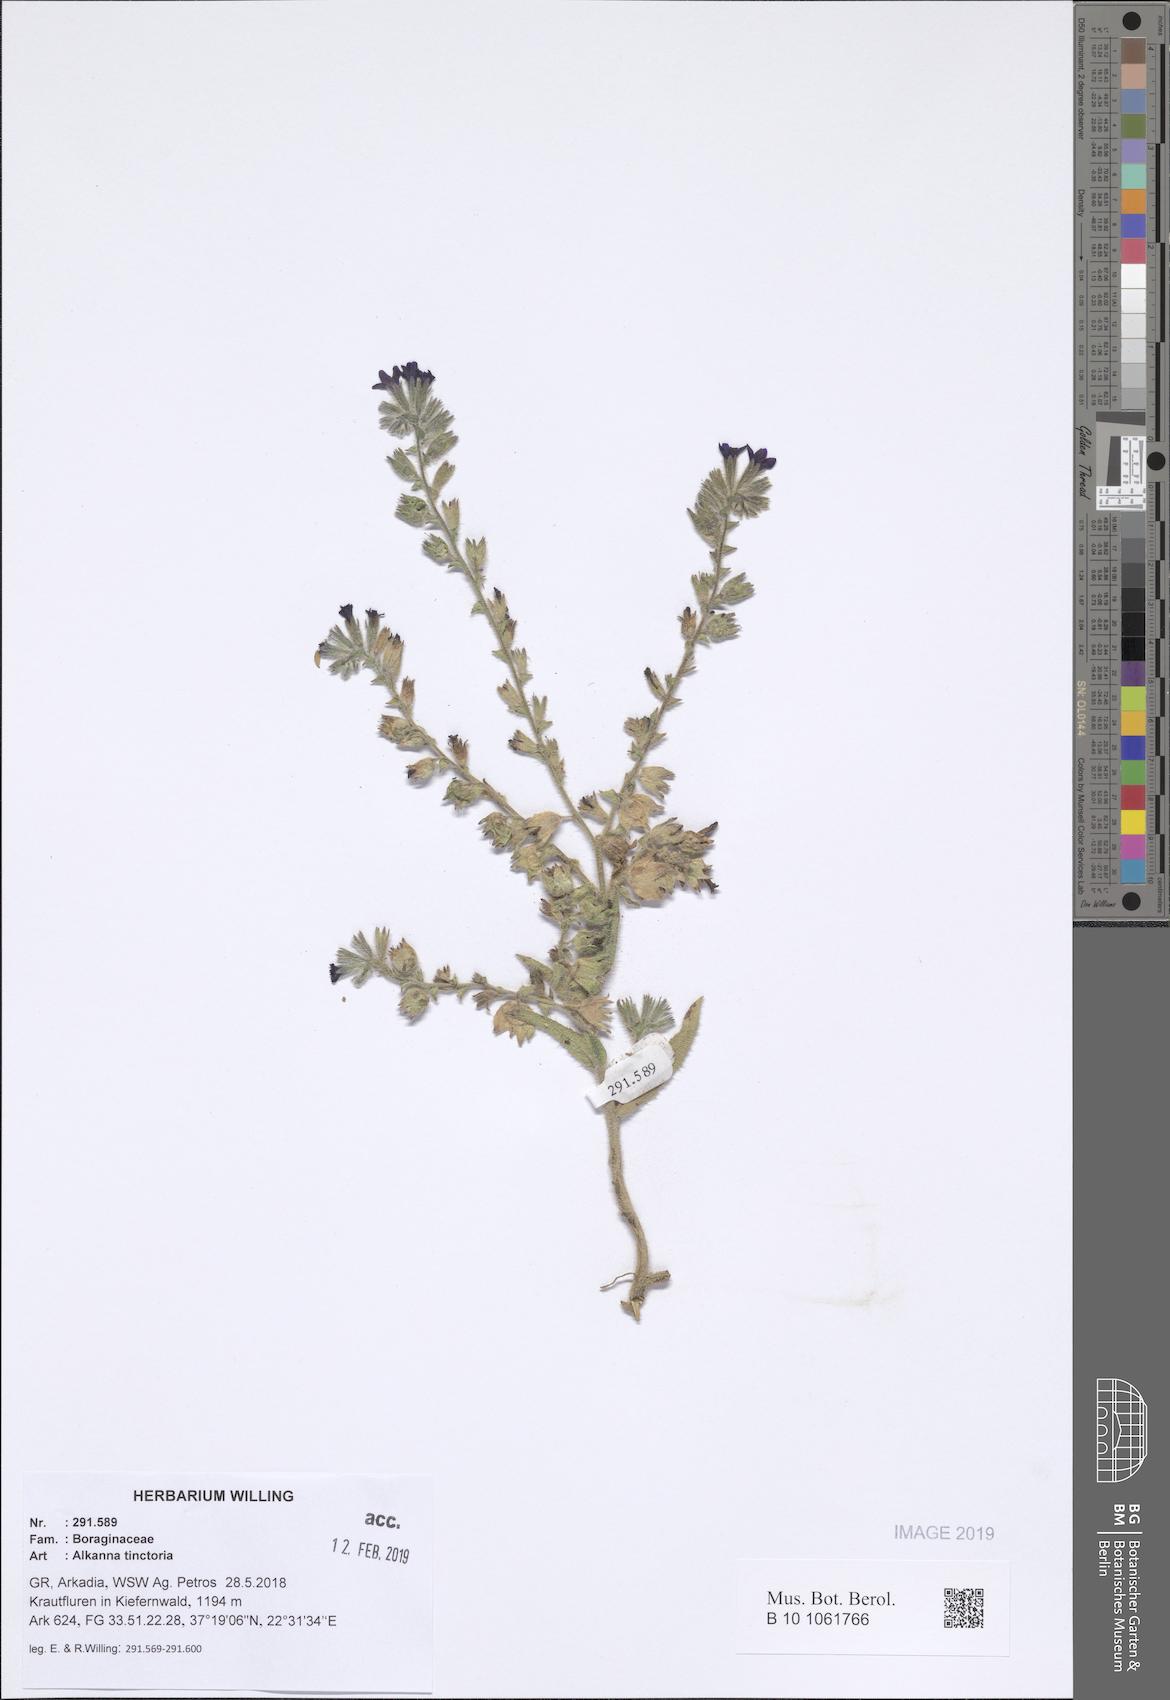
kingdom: Plantae
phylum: Tracheophyta
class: Magnoliopsida
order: Boraginales
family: Boraginaceae
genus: Alkanna
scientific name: Alkanna tinctoria
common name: Dyer's-alkanet
